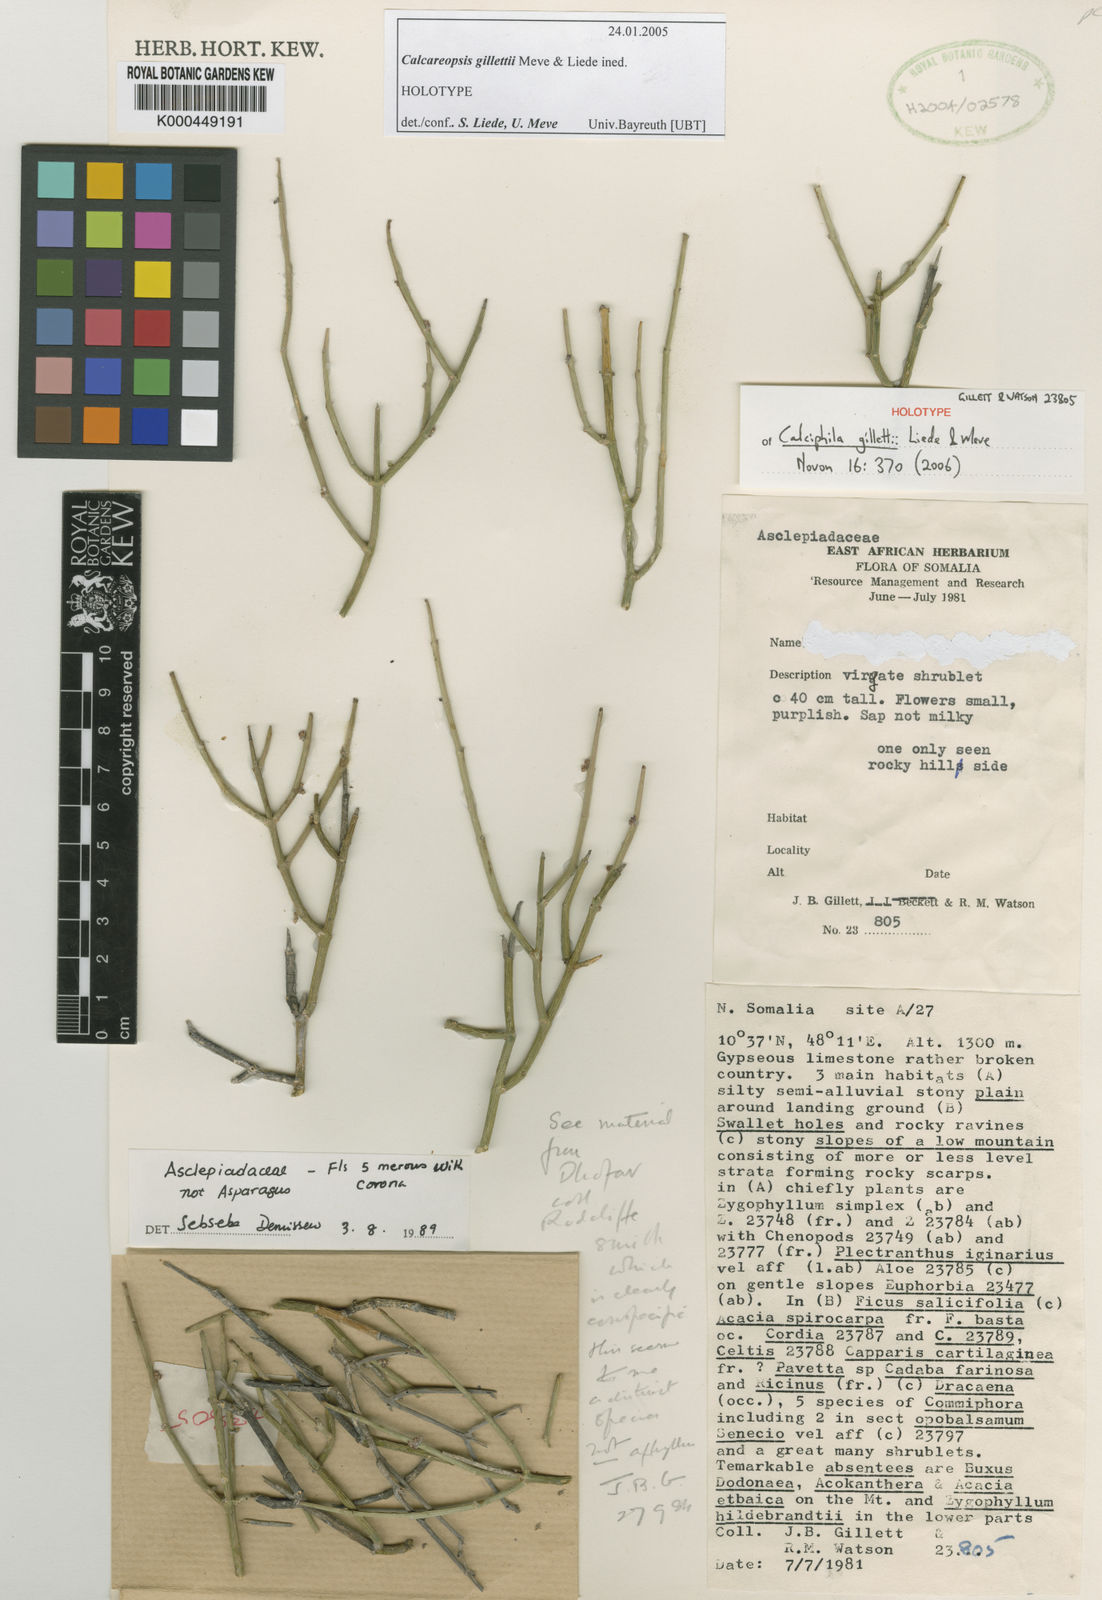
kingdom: Plantae
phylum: Tracheophyta
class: Magnoliopsida
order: Gentianales
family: Asclepiadaceae
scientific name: Asclepiadaceae
